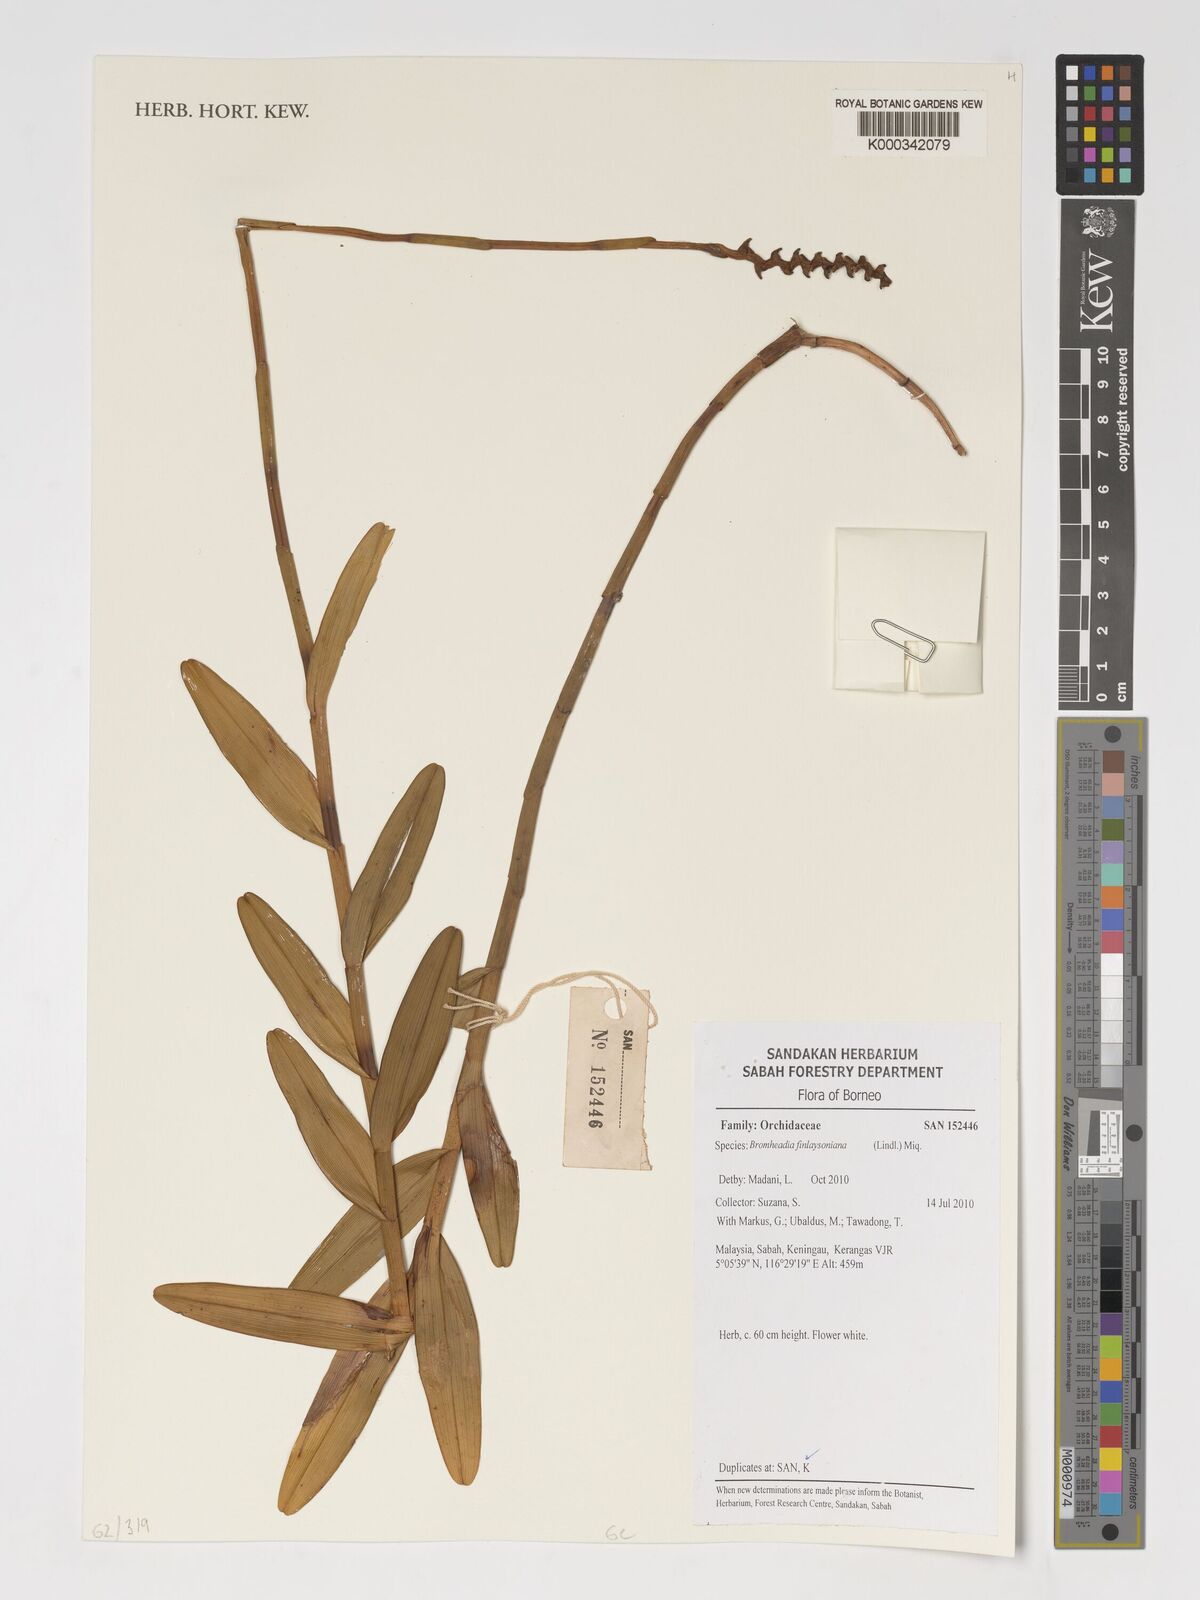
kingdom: Plantae
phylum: Tracheophyta
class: Liliopsida
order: Asparagales
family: Orchidaceae
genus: Bromheadia
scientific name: Bromheadia finlaysoniana
